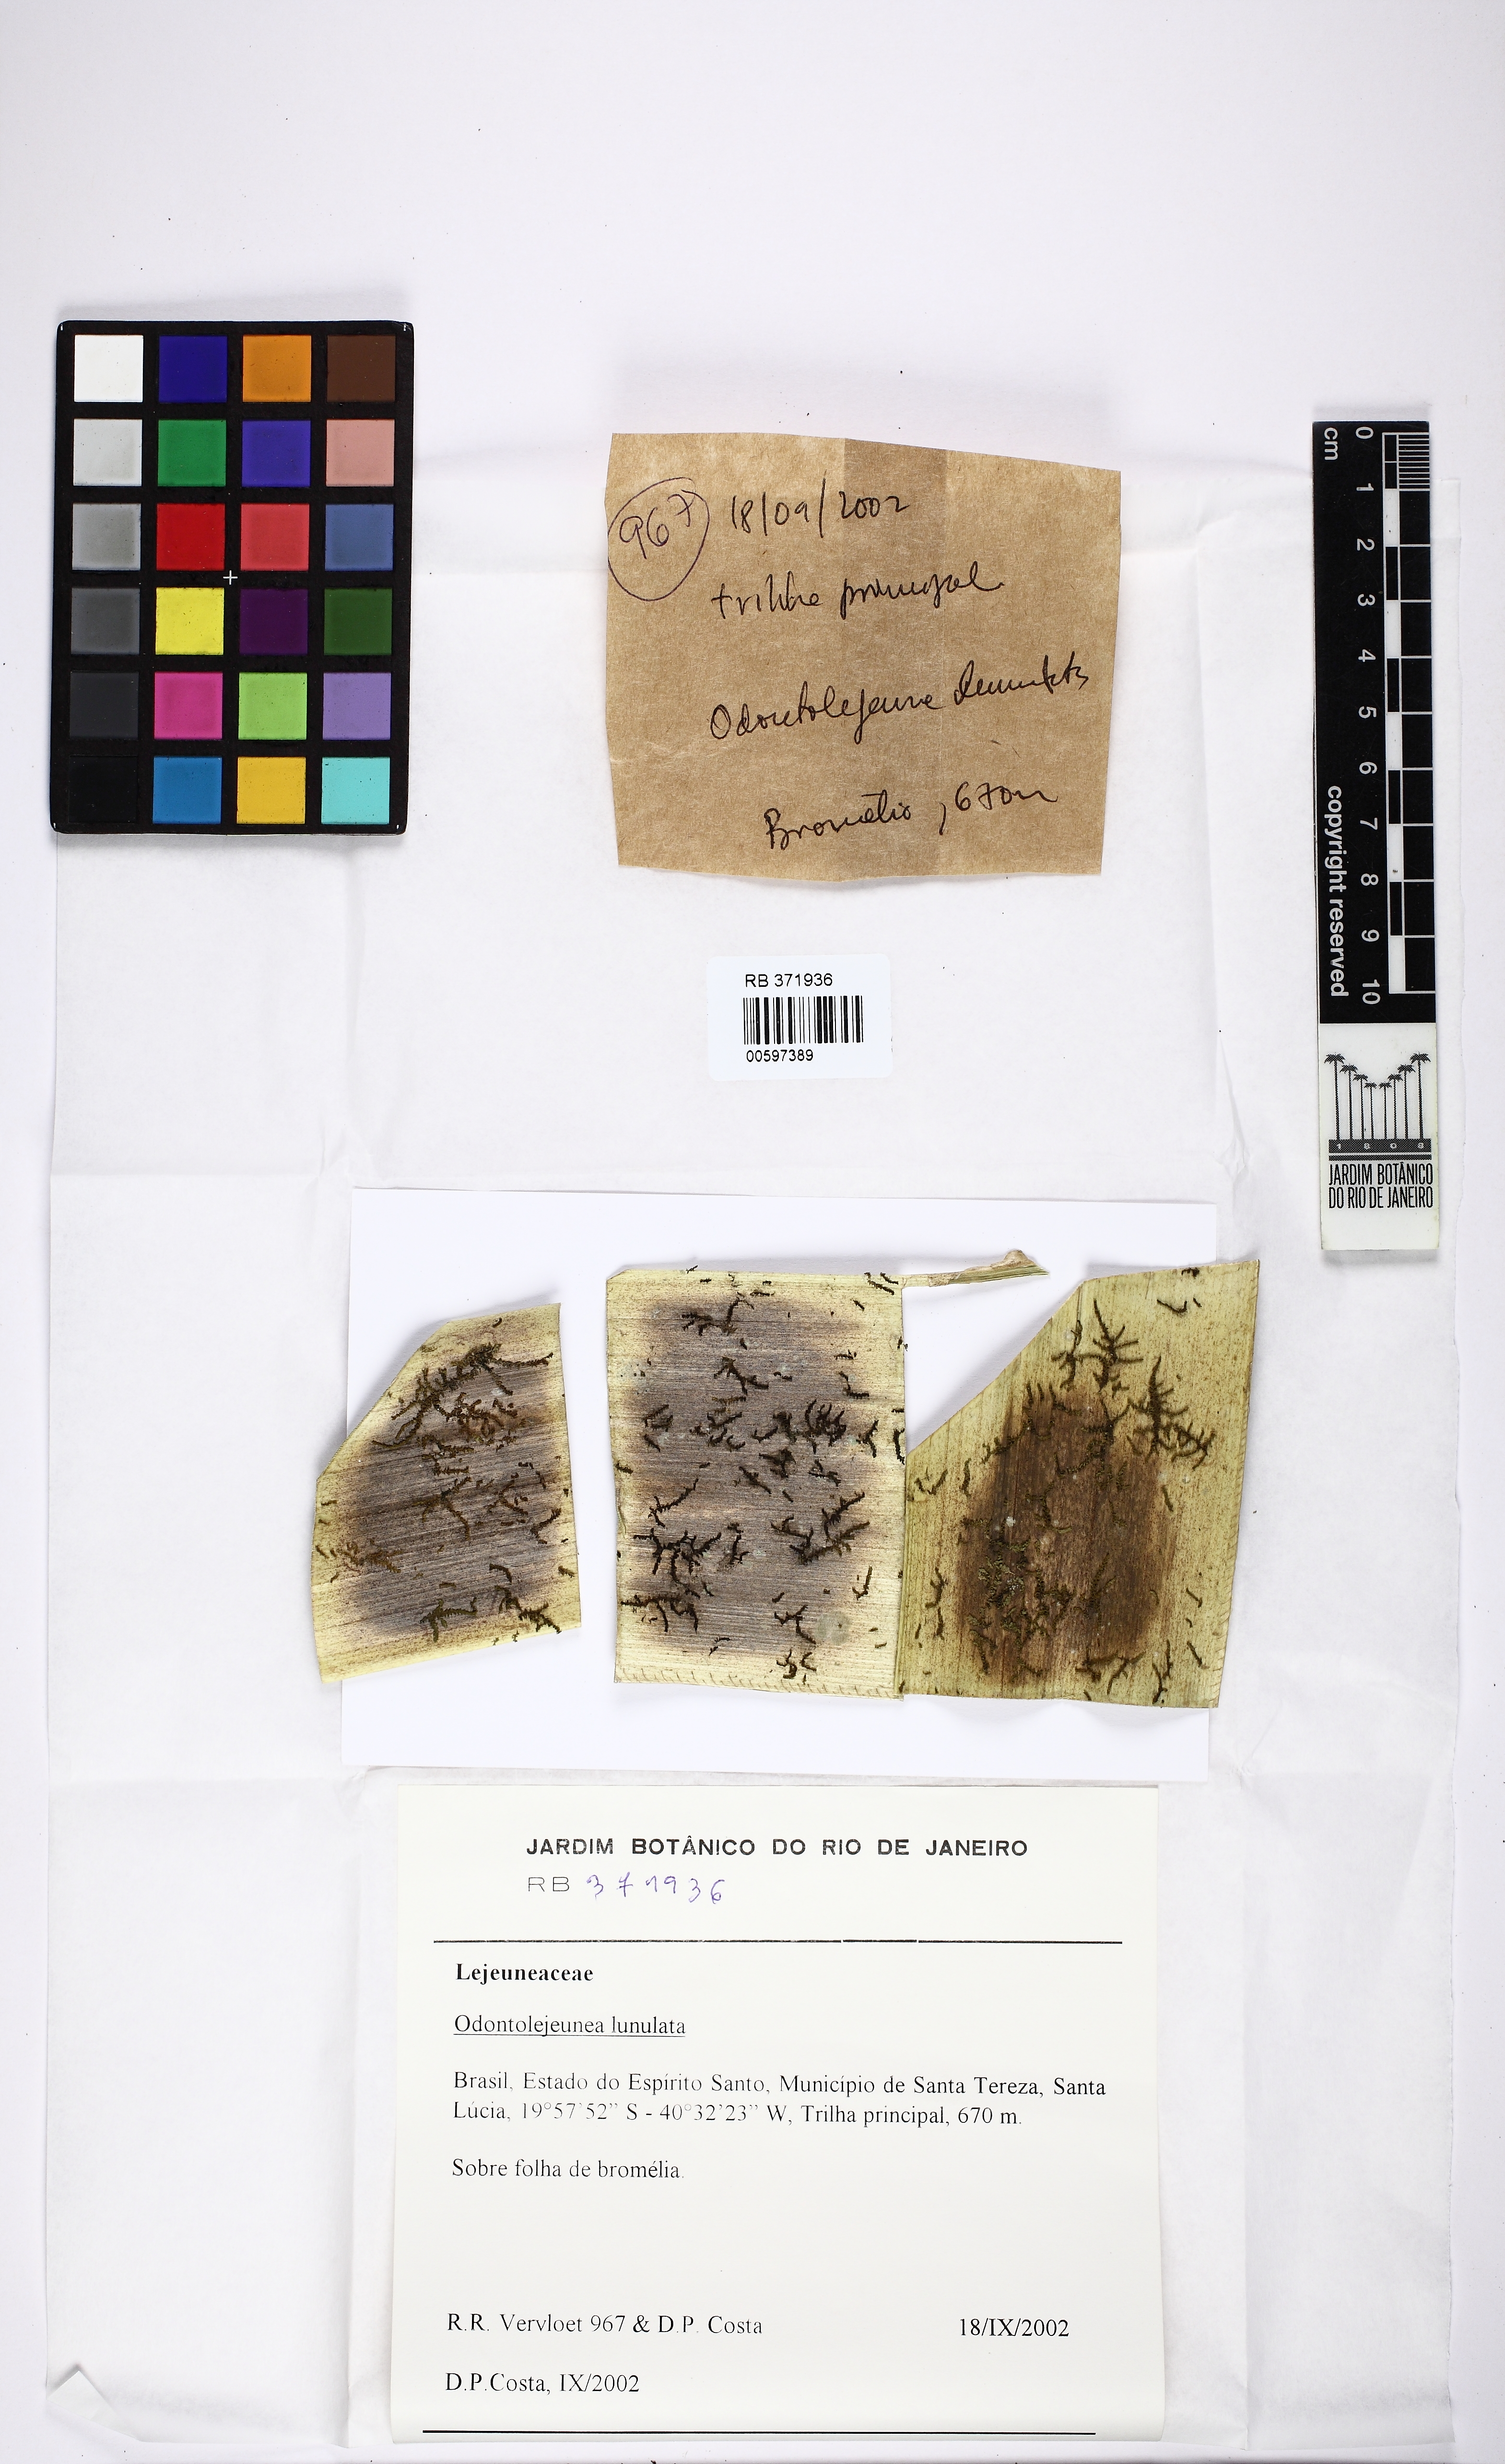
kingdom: Plantae
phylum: Marchantiophyta
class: Jungermanniopsida
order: Porellales
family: Lejeuneaceae
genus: Odontolejeunea
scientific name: Odontolejeunea lunulata
